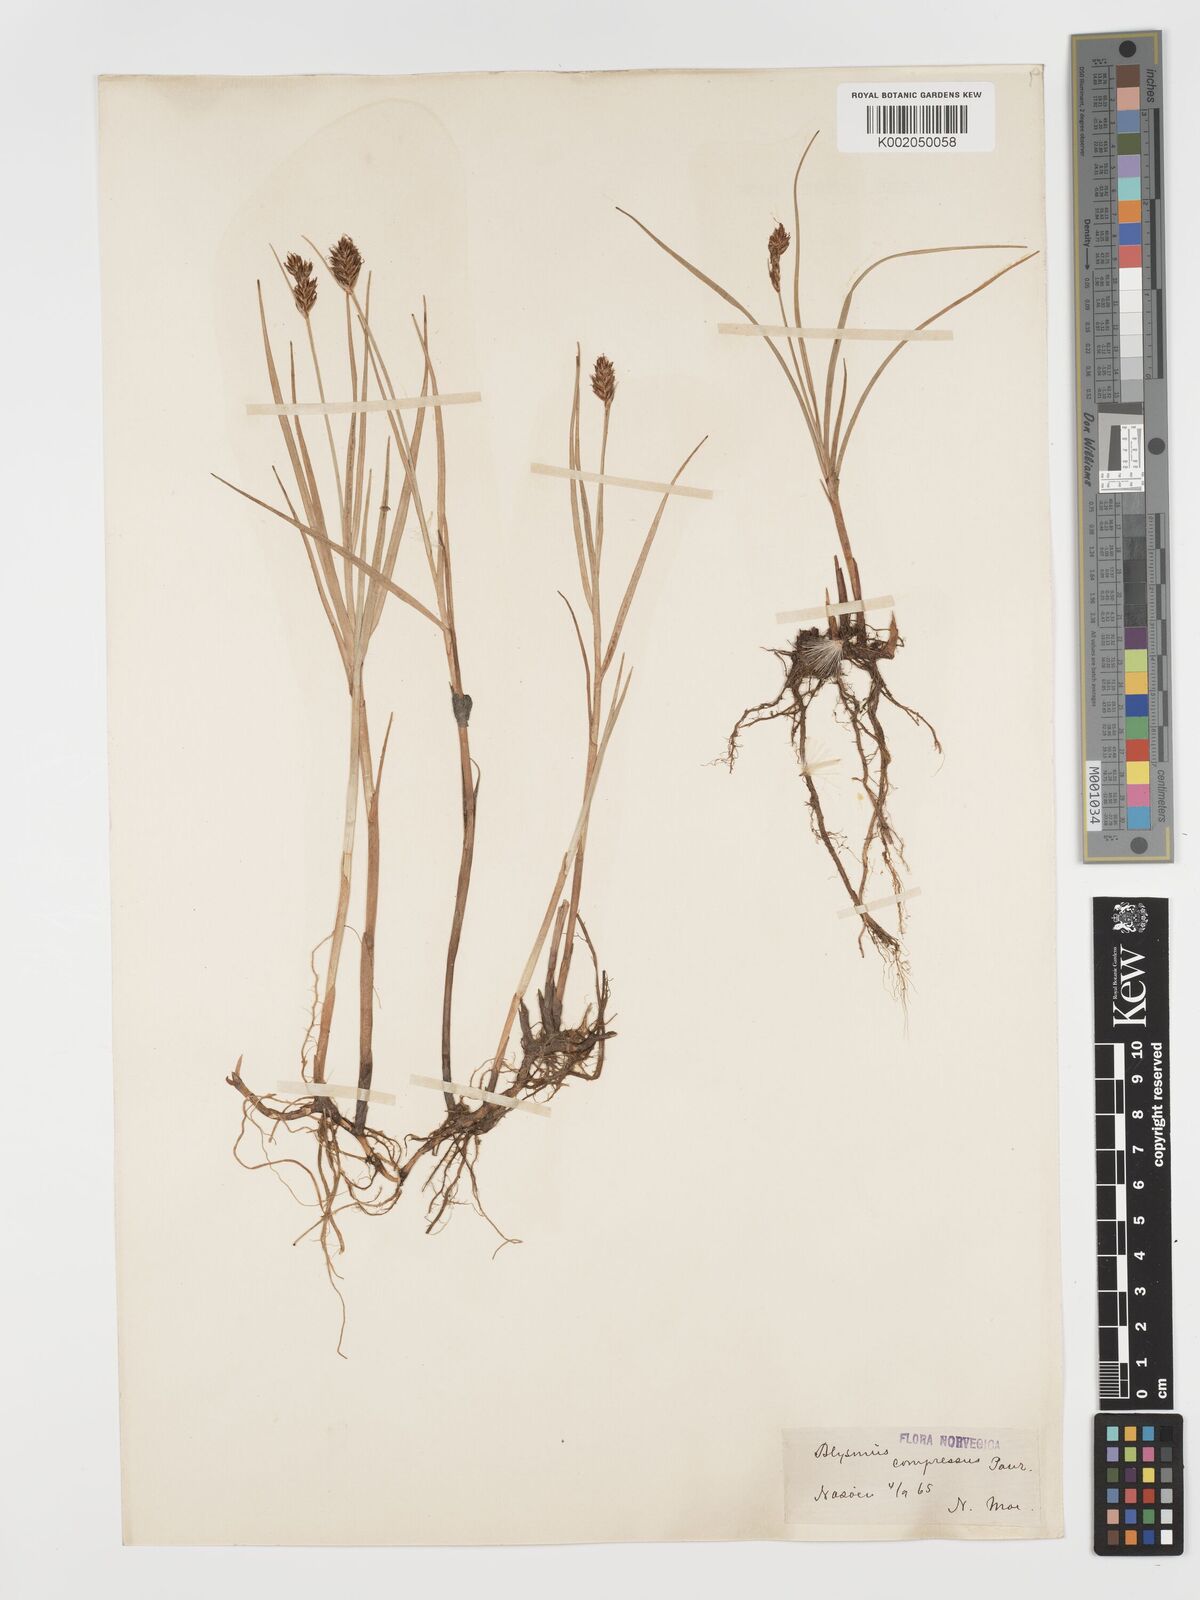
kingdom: Plantae
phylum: Tracheophyta
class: Liliopsida
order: Poales
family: Cyperaceae
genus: Blysmus
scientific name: Blysmus compressus
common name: Flat-sedge
